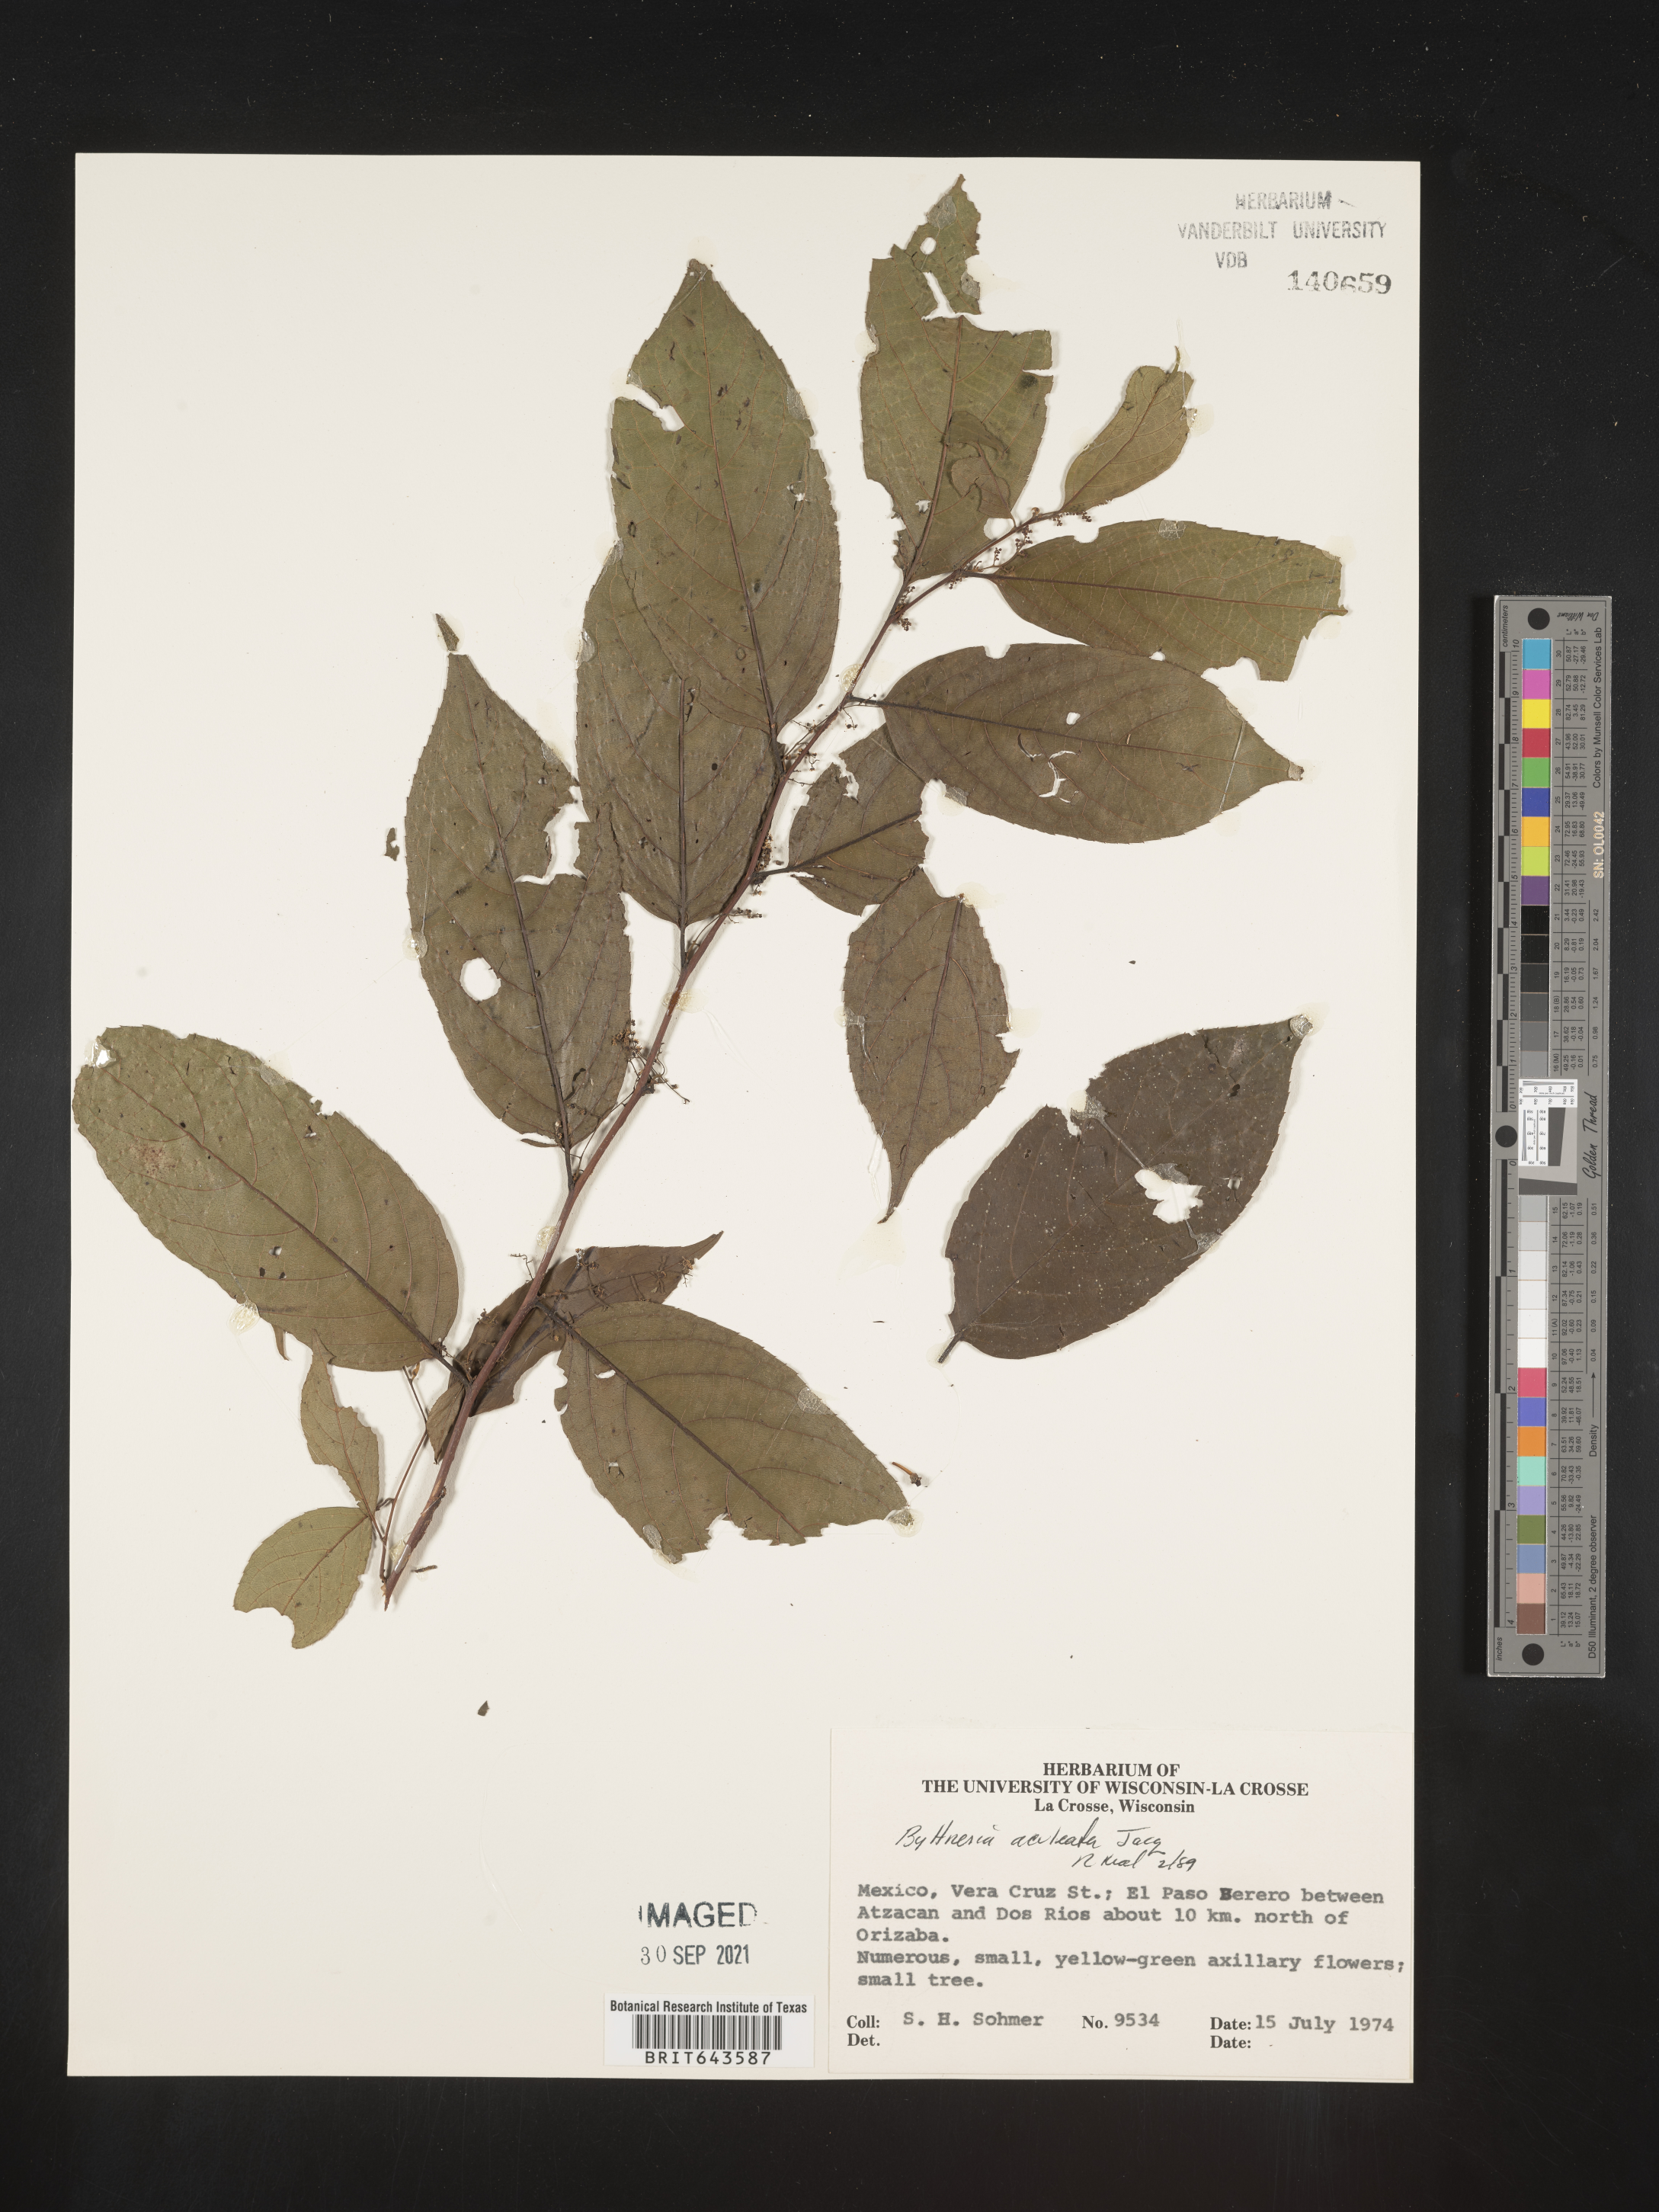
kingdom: Plantae
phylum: Tracheophyta
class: Magnoliopsida
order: Malvales
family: Malvaceae
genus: Byttneria
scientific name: Byttneria
